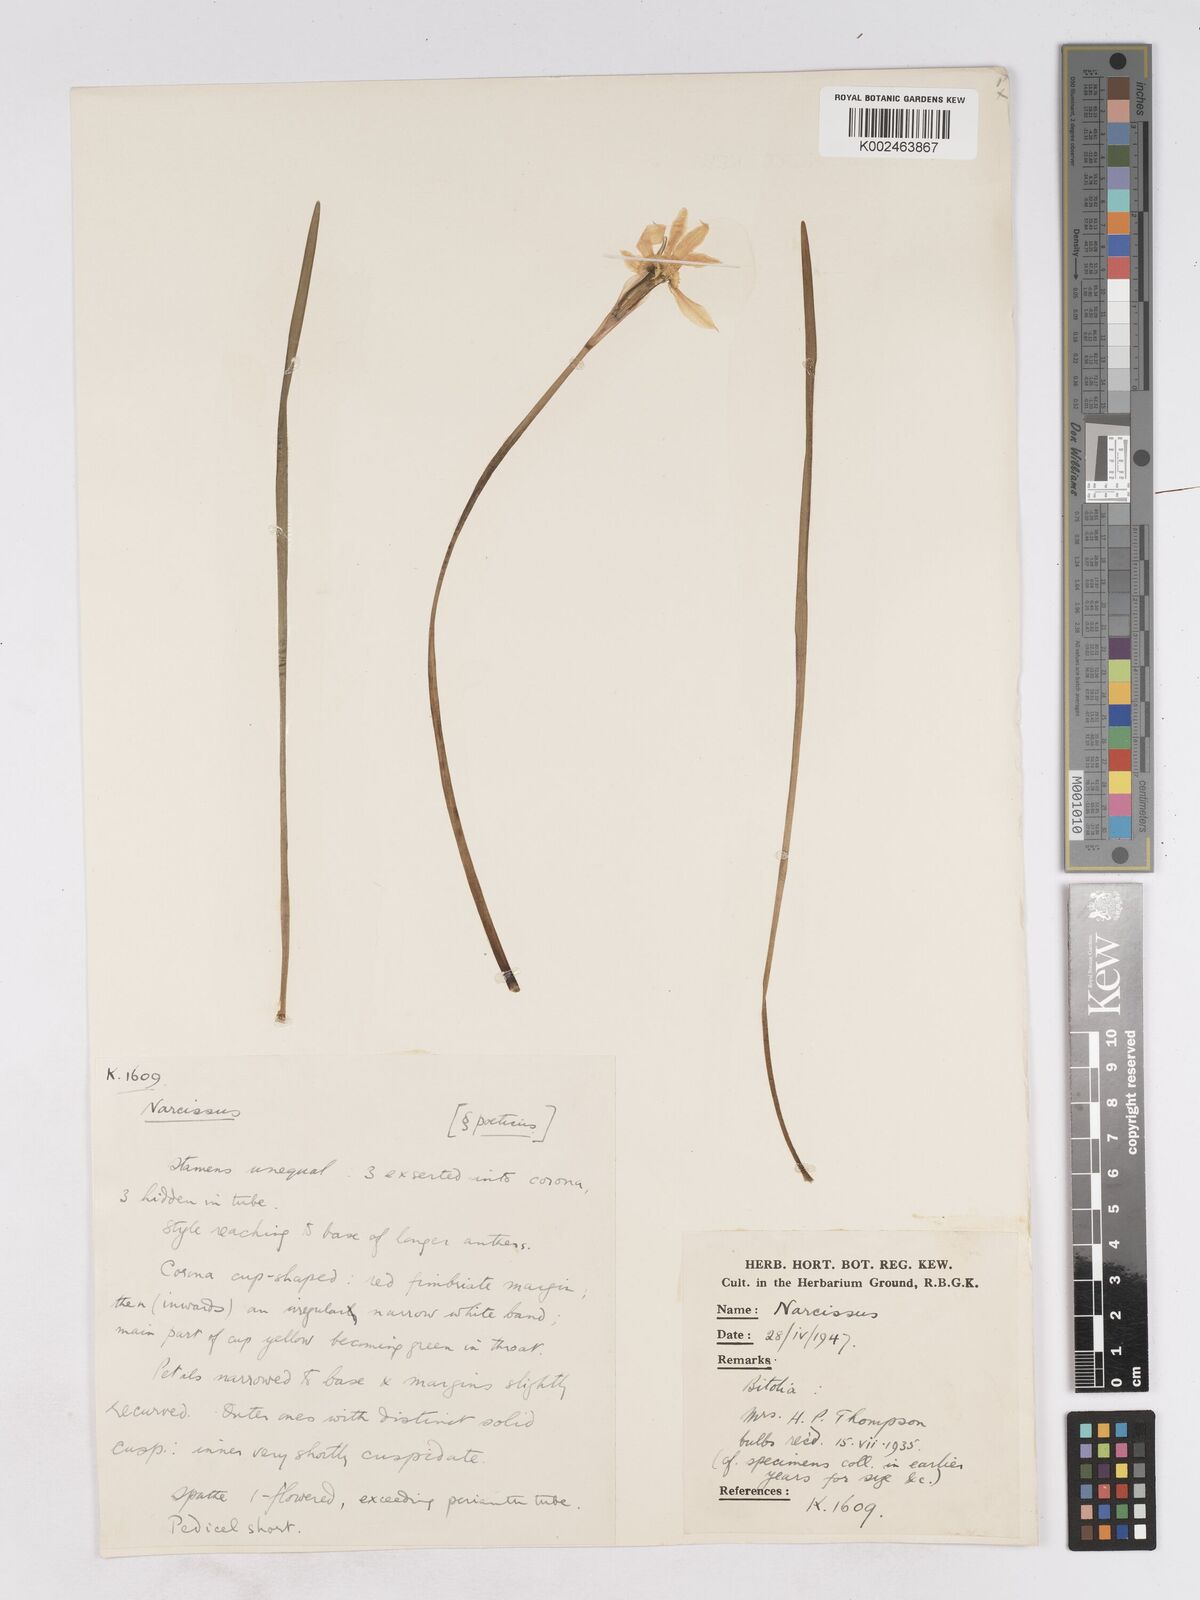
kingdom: Plantae
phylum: Tracheophyta
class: Liliopsida
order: Asparagales
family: Amaryllidaceae
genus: Narcissus
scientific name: Narcissus
